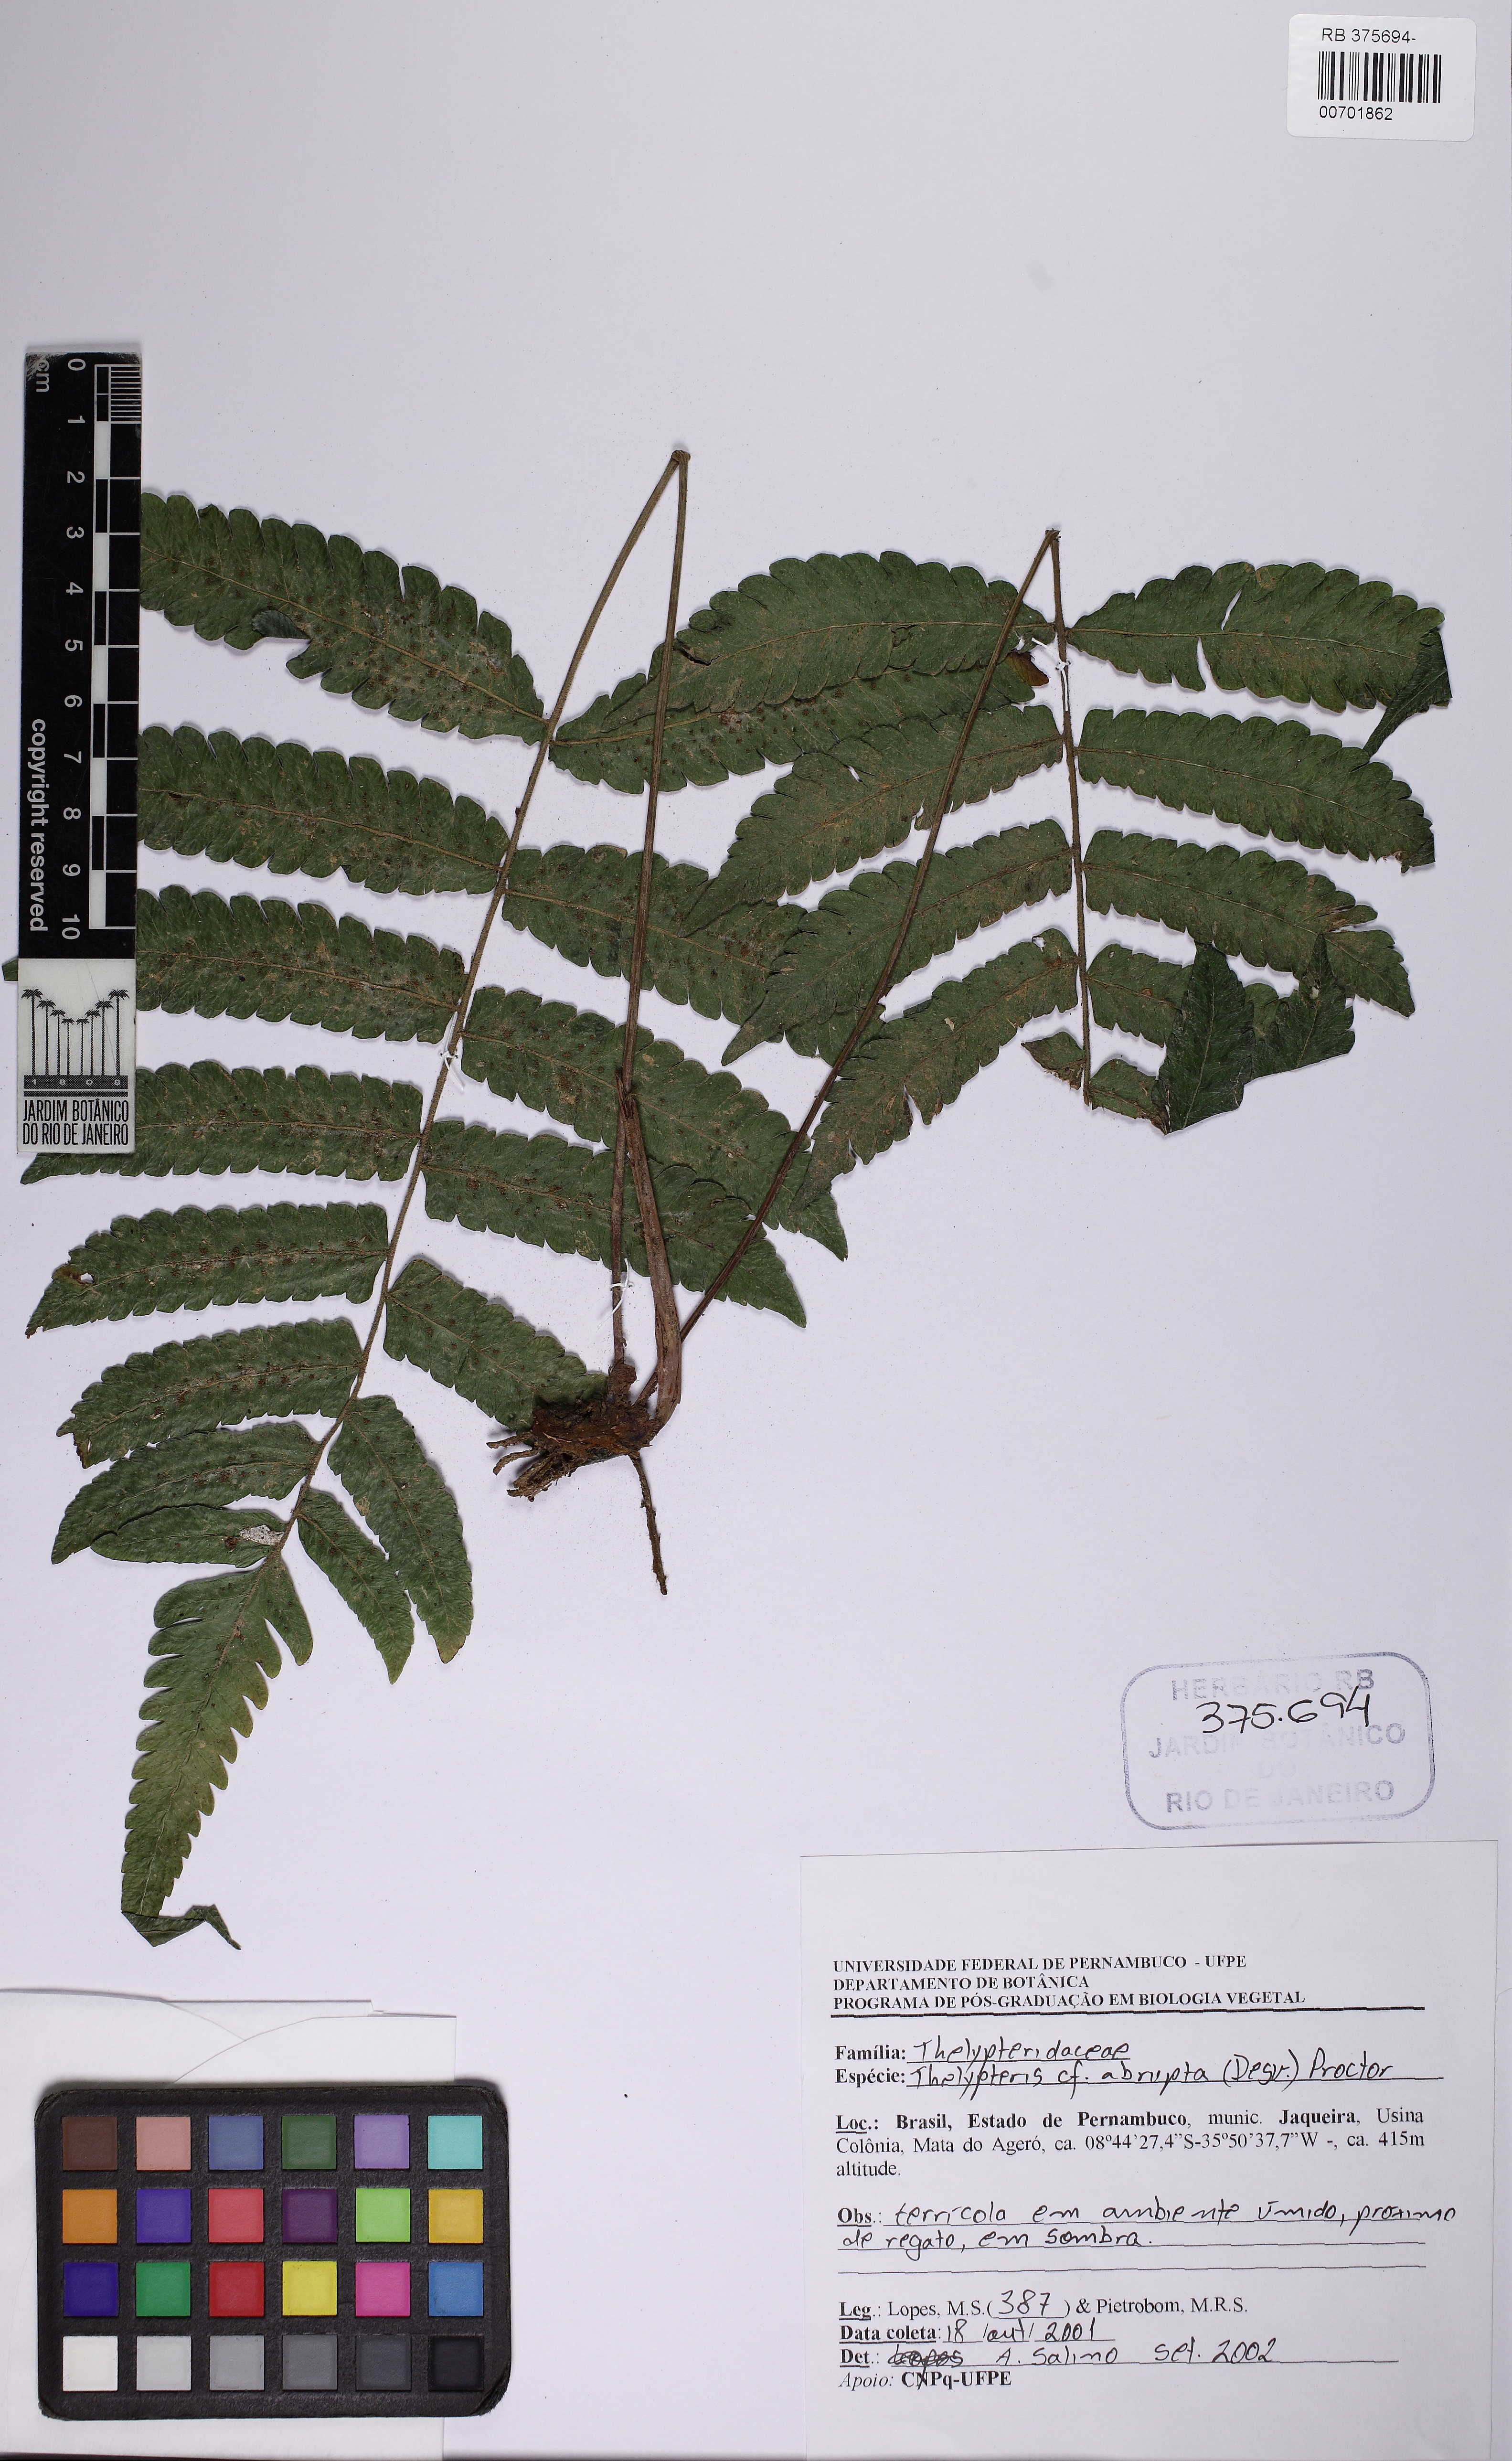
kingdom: Plantae
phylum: Tracheophyta
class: Polypodiopsida
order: Polypodiales
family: Thelypteridaceae
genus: Goniopteris
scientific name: Goniopteris abrupta
